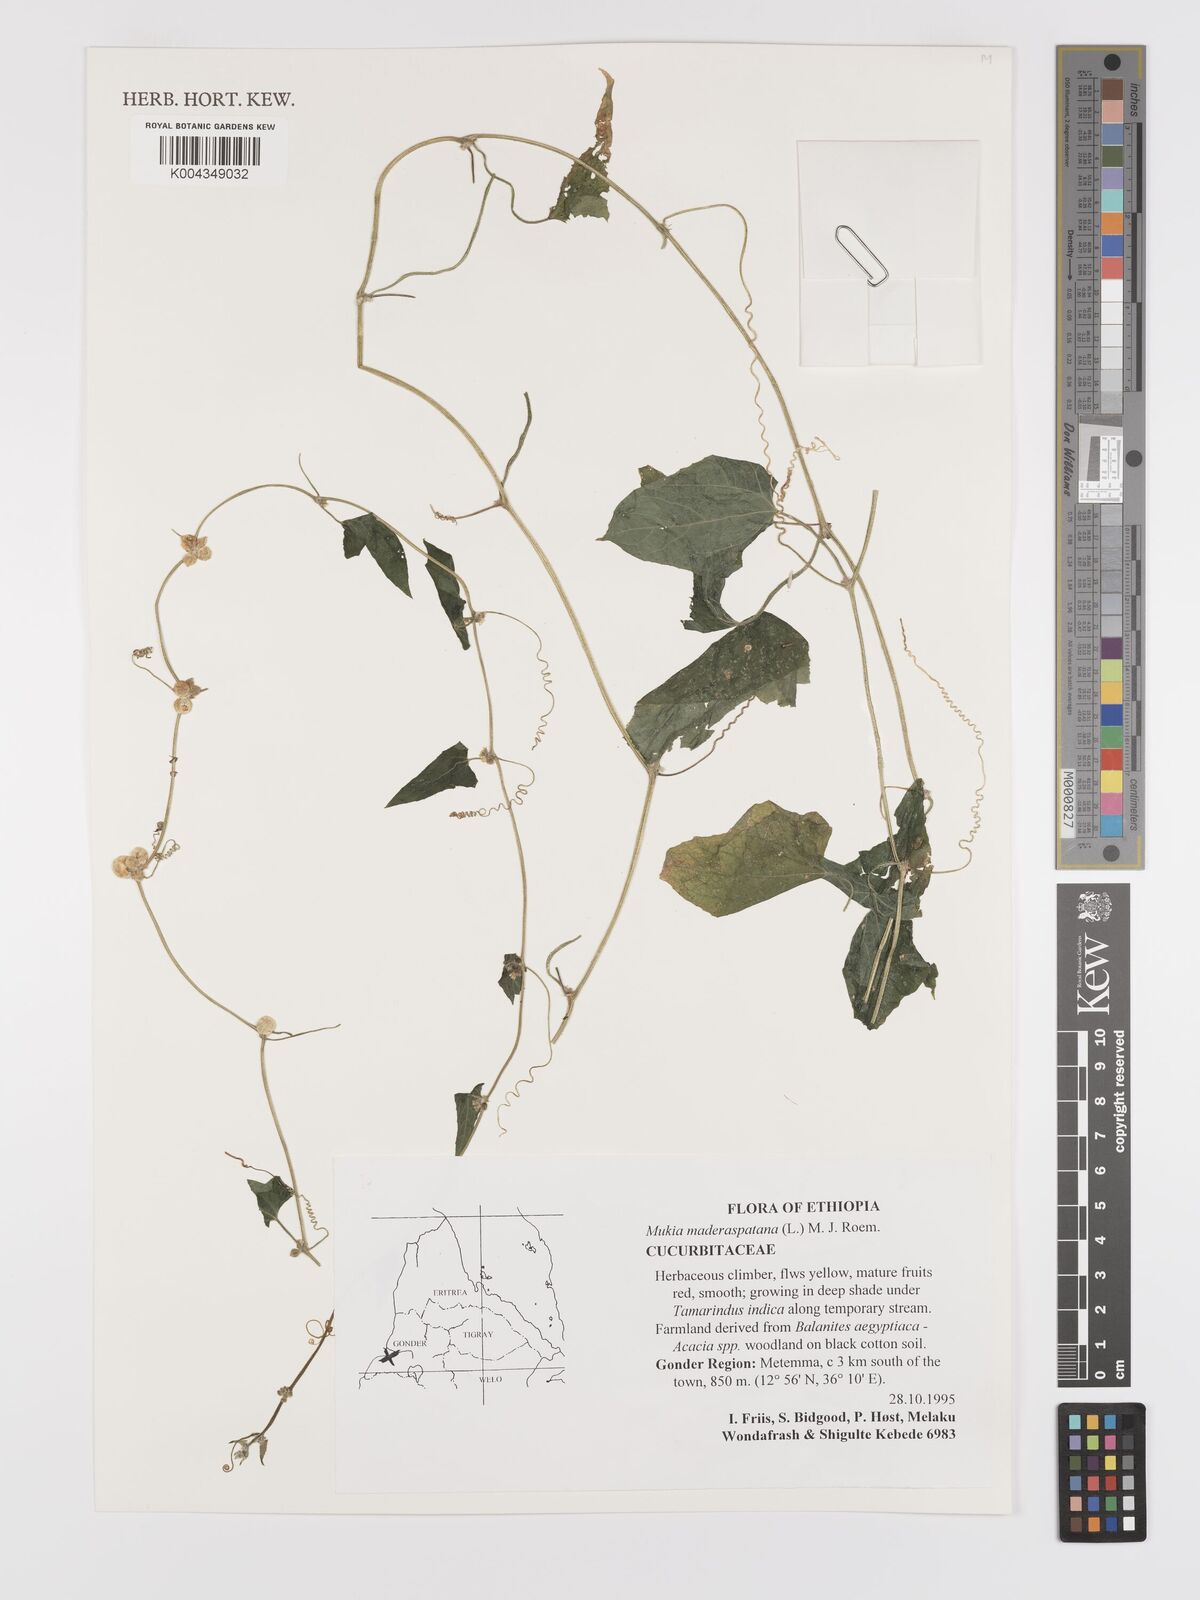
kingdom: Plantae
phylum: Tracheophyta
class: Magnoliopsida
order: Cucurbitales
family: Cucurbitaceae
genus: Cucumis
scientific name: Cucumis maderaspatanus
